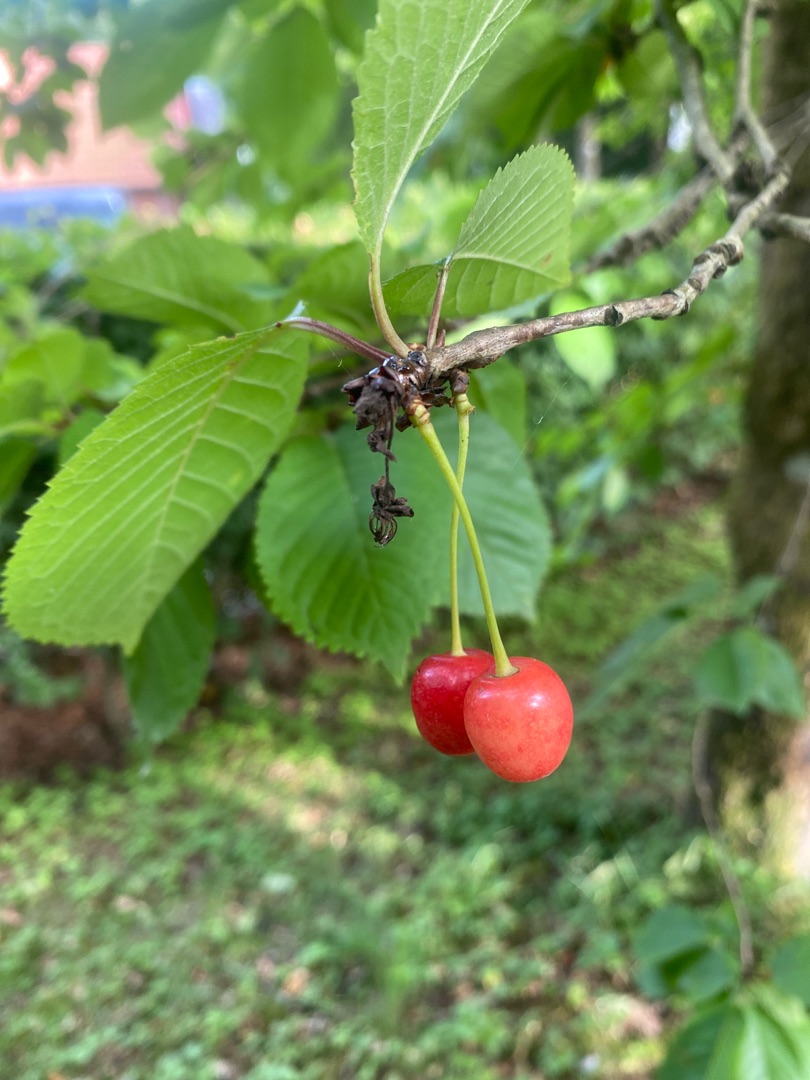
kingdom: Plantae
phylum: Tracheophyta
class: Magnoliopsida
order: Rosales
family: Rosaceae
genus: Prunus
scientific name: Prunus avium
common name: Fugle-kirsebær
